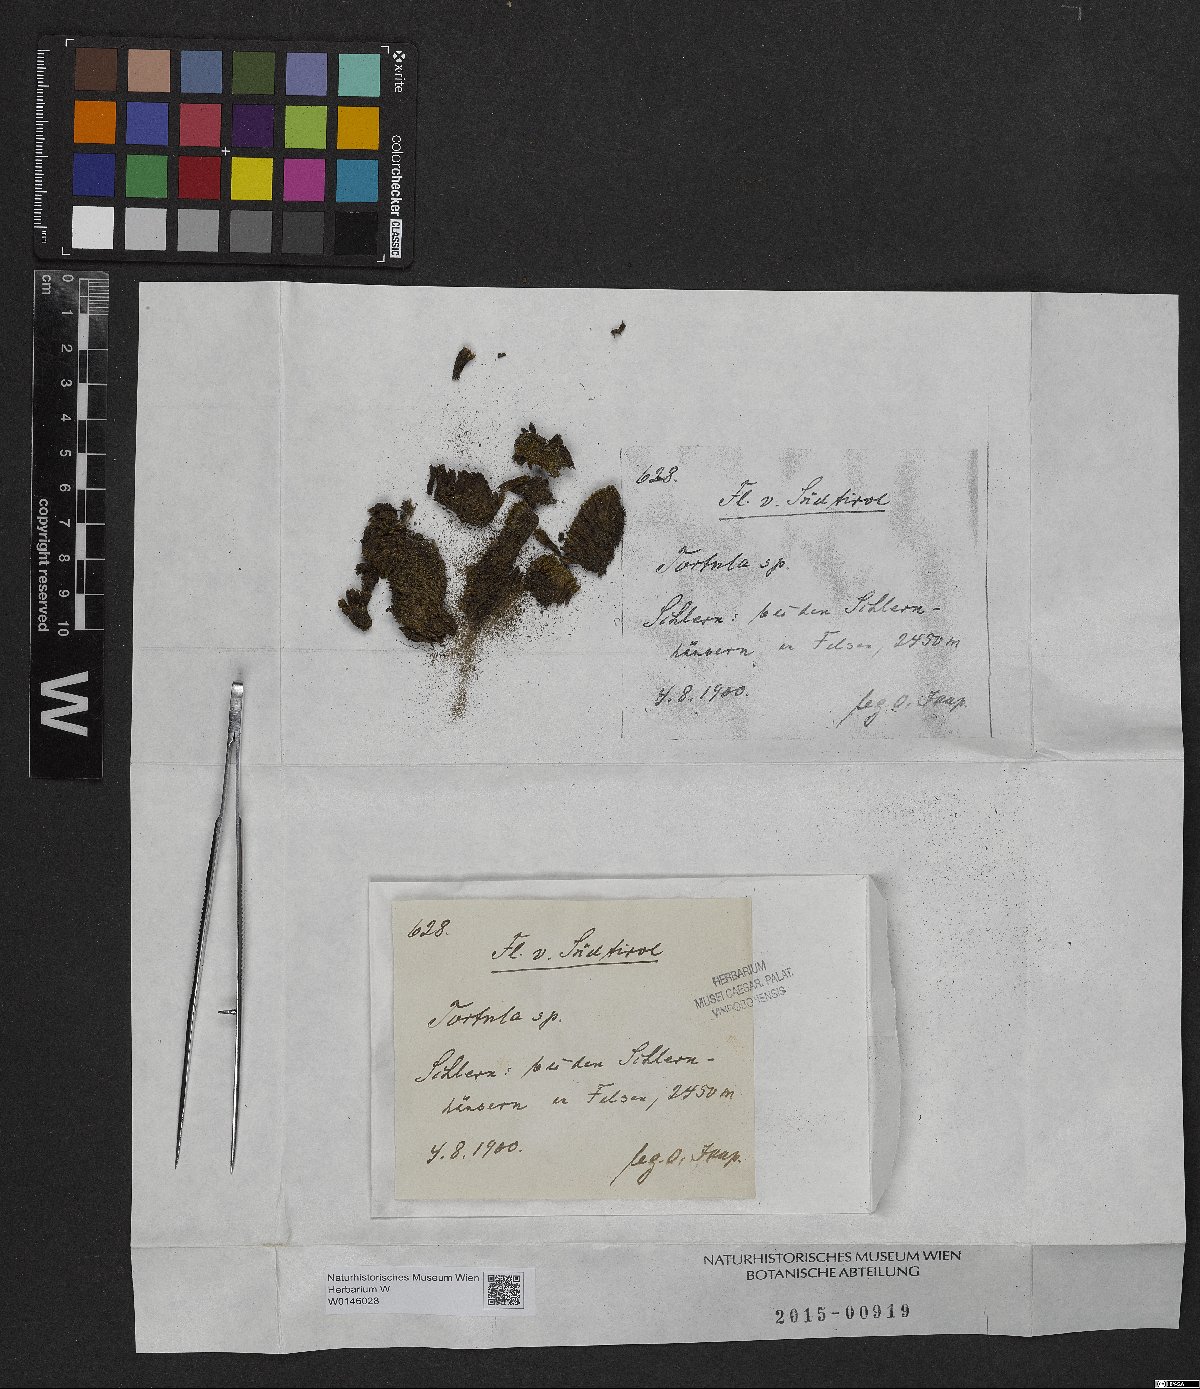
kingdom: Plantae
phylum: Bryophyta
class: Bryopsida
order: Pottiales
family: Pottiaceae
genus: Tortula
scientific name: Tortula
